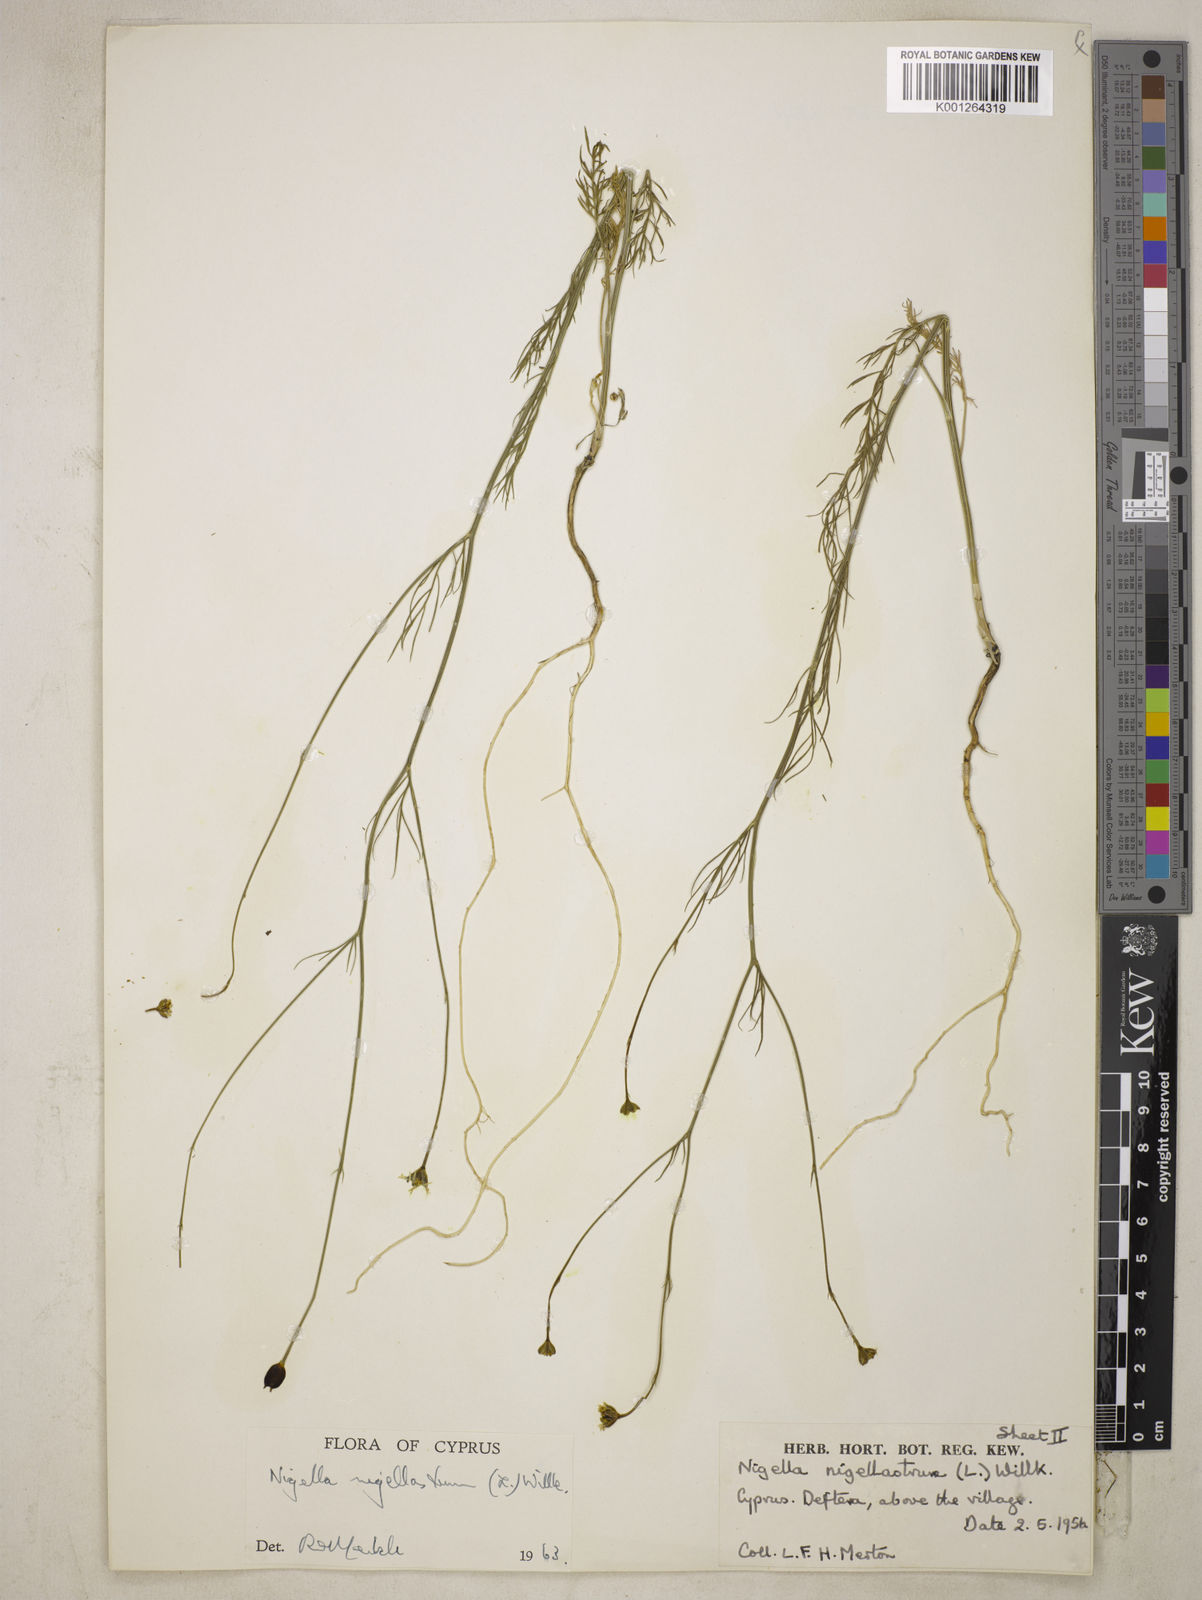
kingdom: Plantae
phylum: Tracheophyta
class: Magnoliopsida
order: Ranunculales
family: Ranunculaceae
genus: Garidella
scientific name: Garidella nigellastrum
